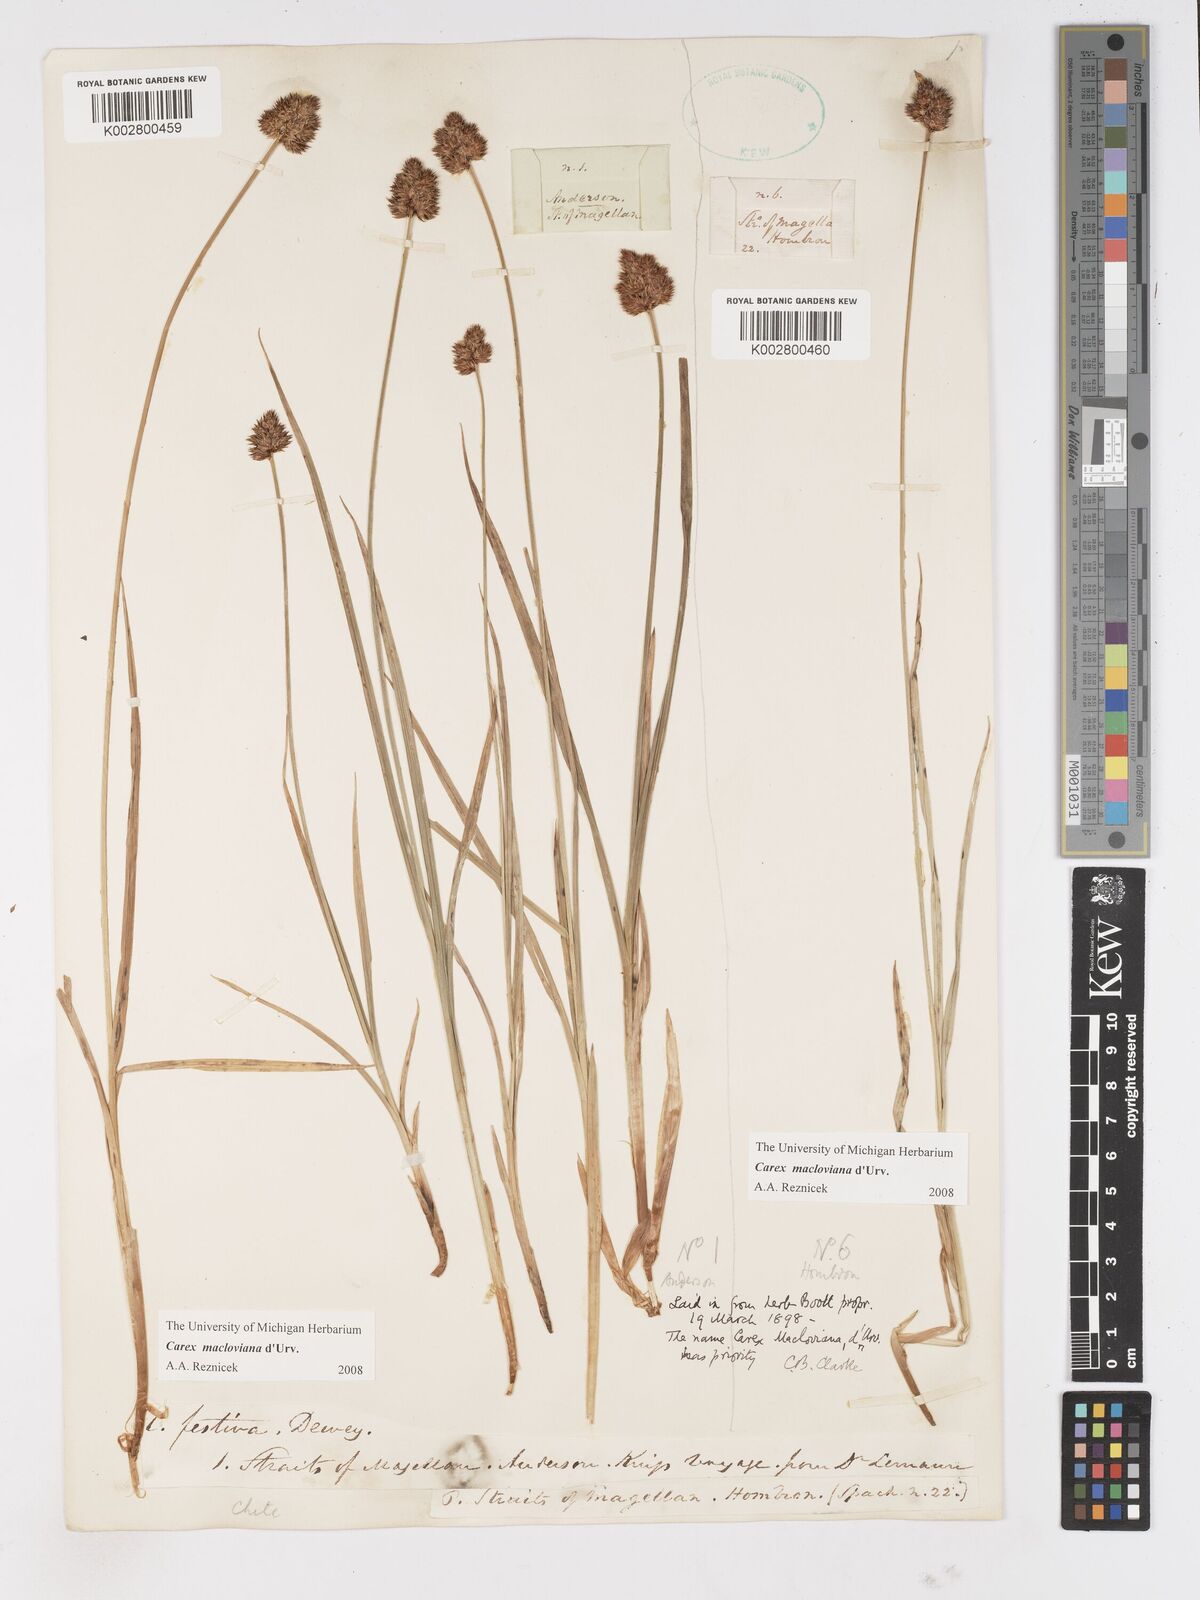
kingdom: Plantae
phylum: Tracheophyta
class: Liliopsida
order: Poales
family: Cyperaceae
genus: Carex
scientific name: Carex macloviana
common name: Falkland island sedge
